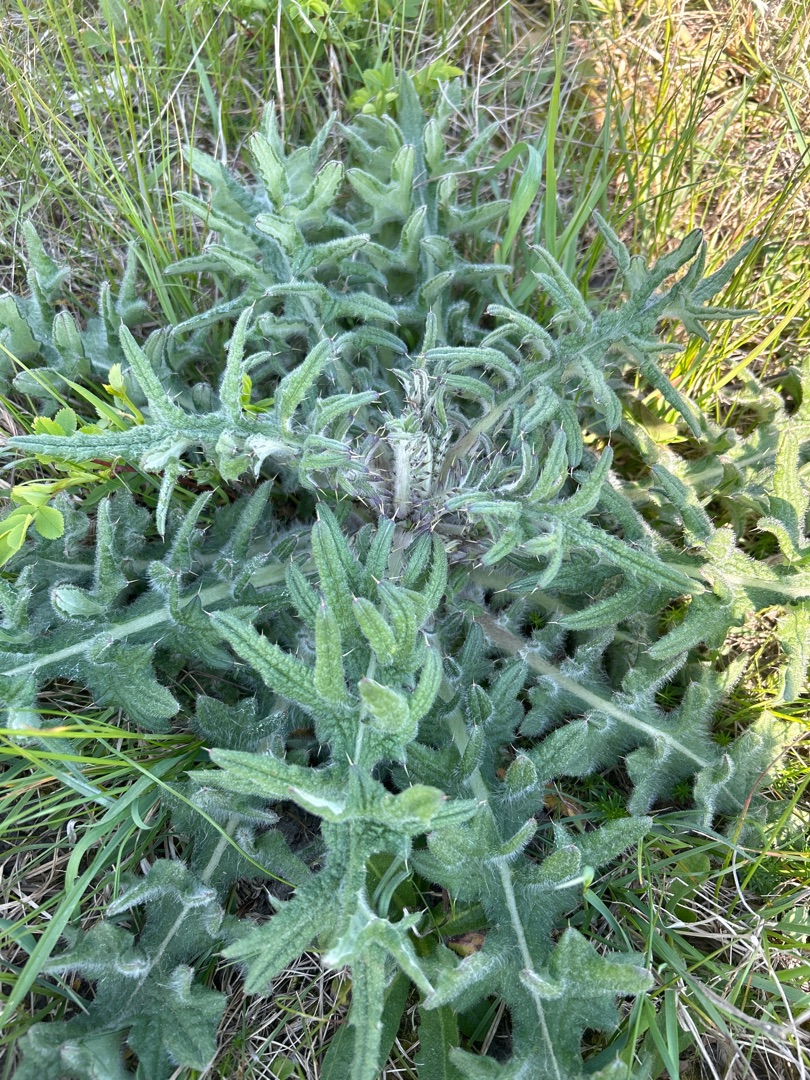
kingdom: Plantae
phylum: Tracheophyta
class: Magnoliopsida
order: Asterales
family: Asteraceae
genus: Cirsium
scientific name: Cirsium vulgare
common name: Horse-tidsel
